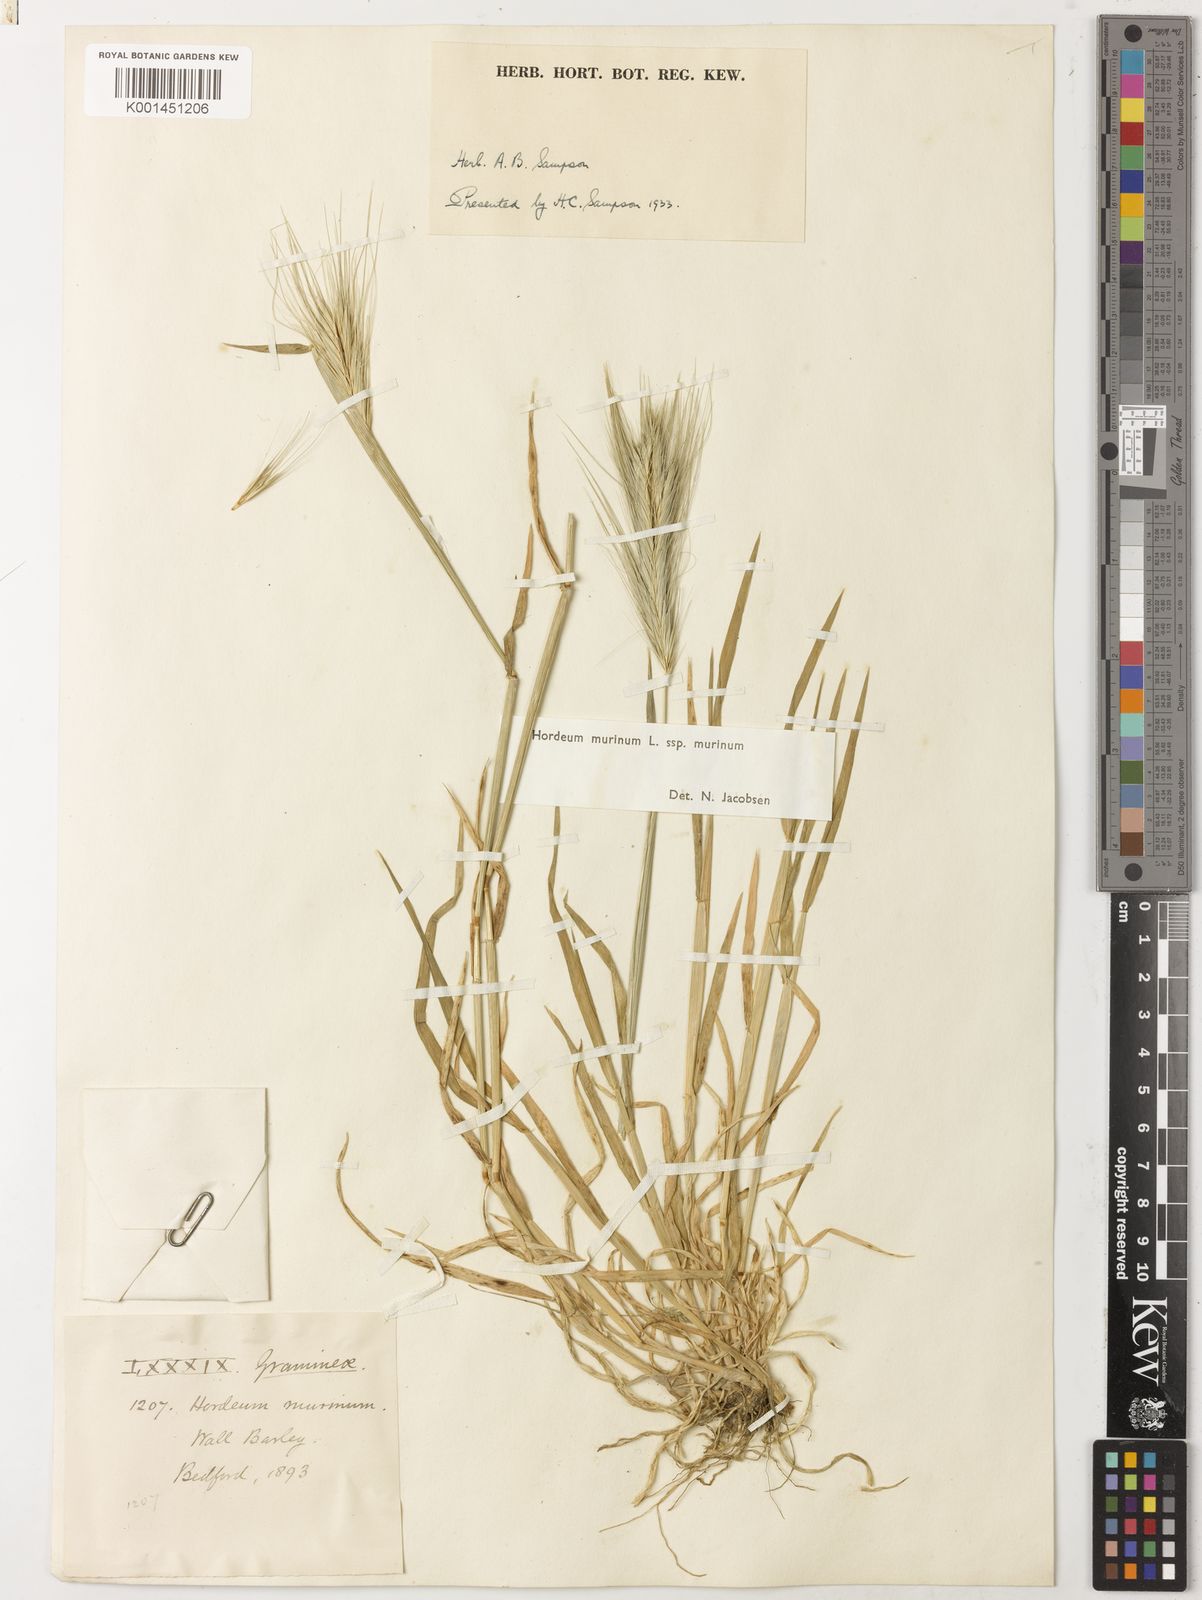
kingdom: Plantae
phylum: Tracheophyta
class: Liliopsida
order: Poales
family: Poaceae
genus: Hordeum
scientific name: Hordeum murinum
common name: Wall barley
